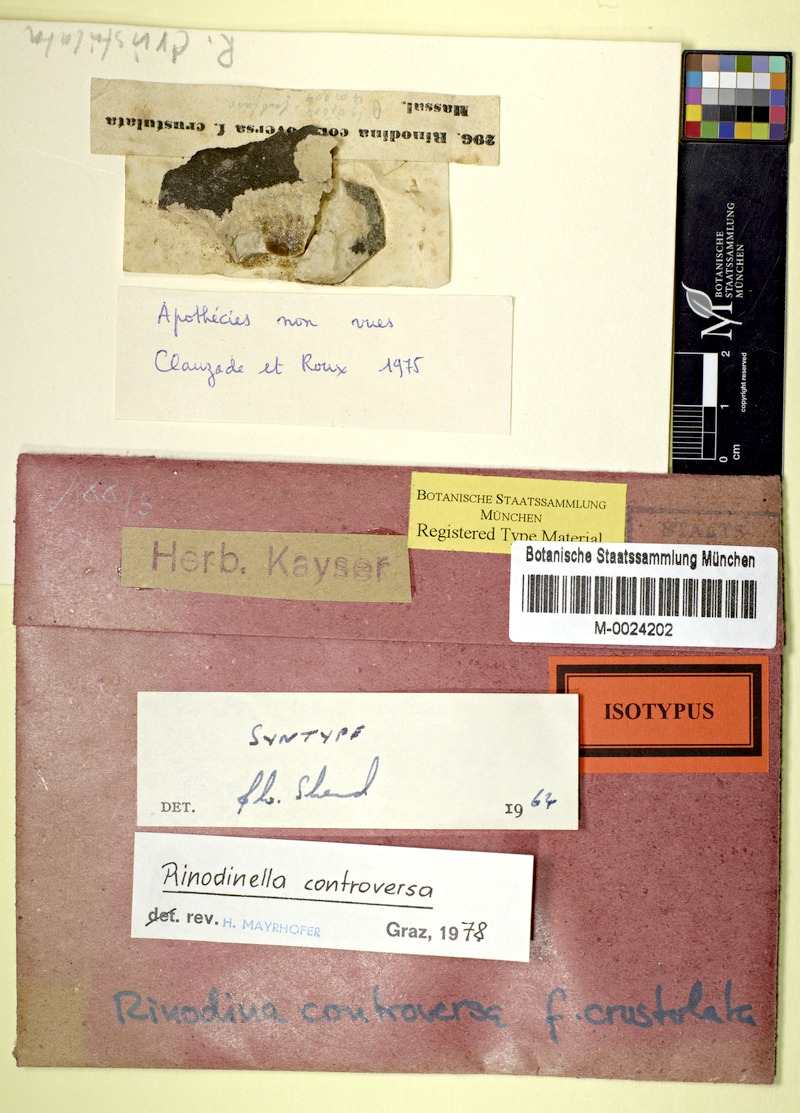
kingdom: Fungi
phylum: Ascomycota
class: Lecanoromycetes
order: Caliciales
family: Physciaceae
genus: Rinodinella
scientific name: Rinodinella controversa
